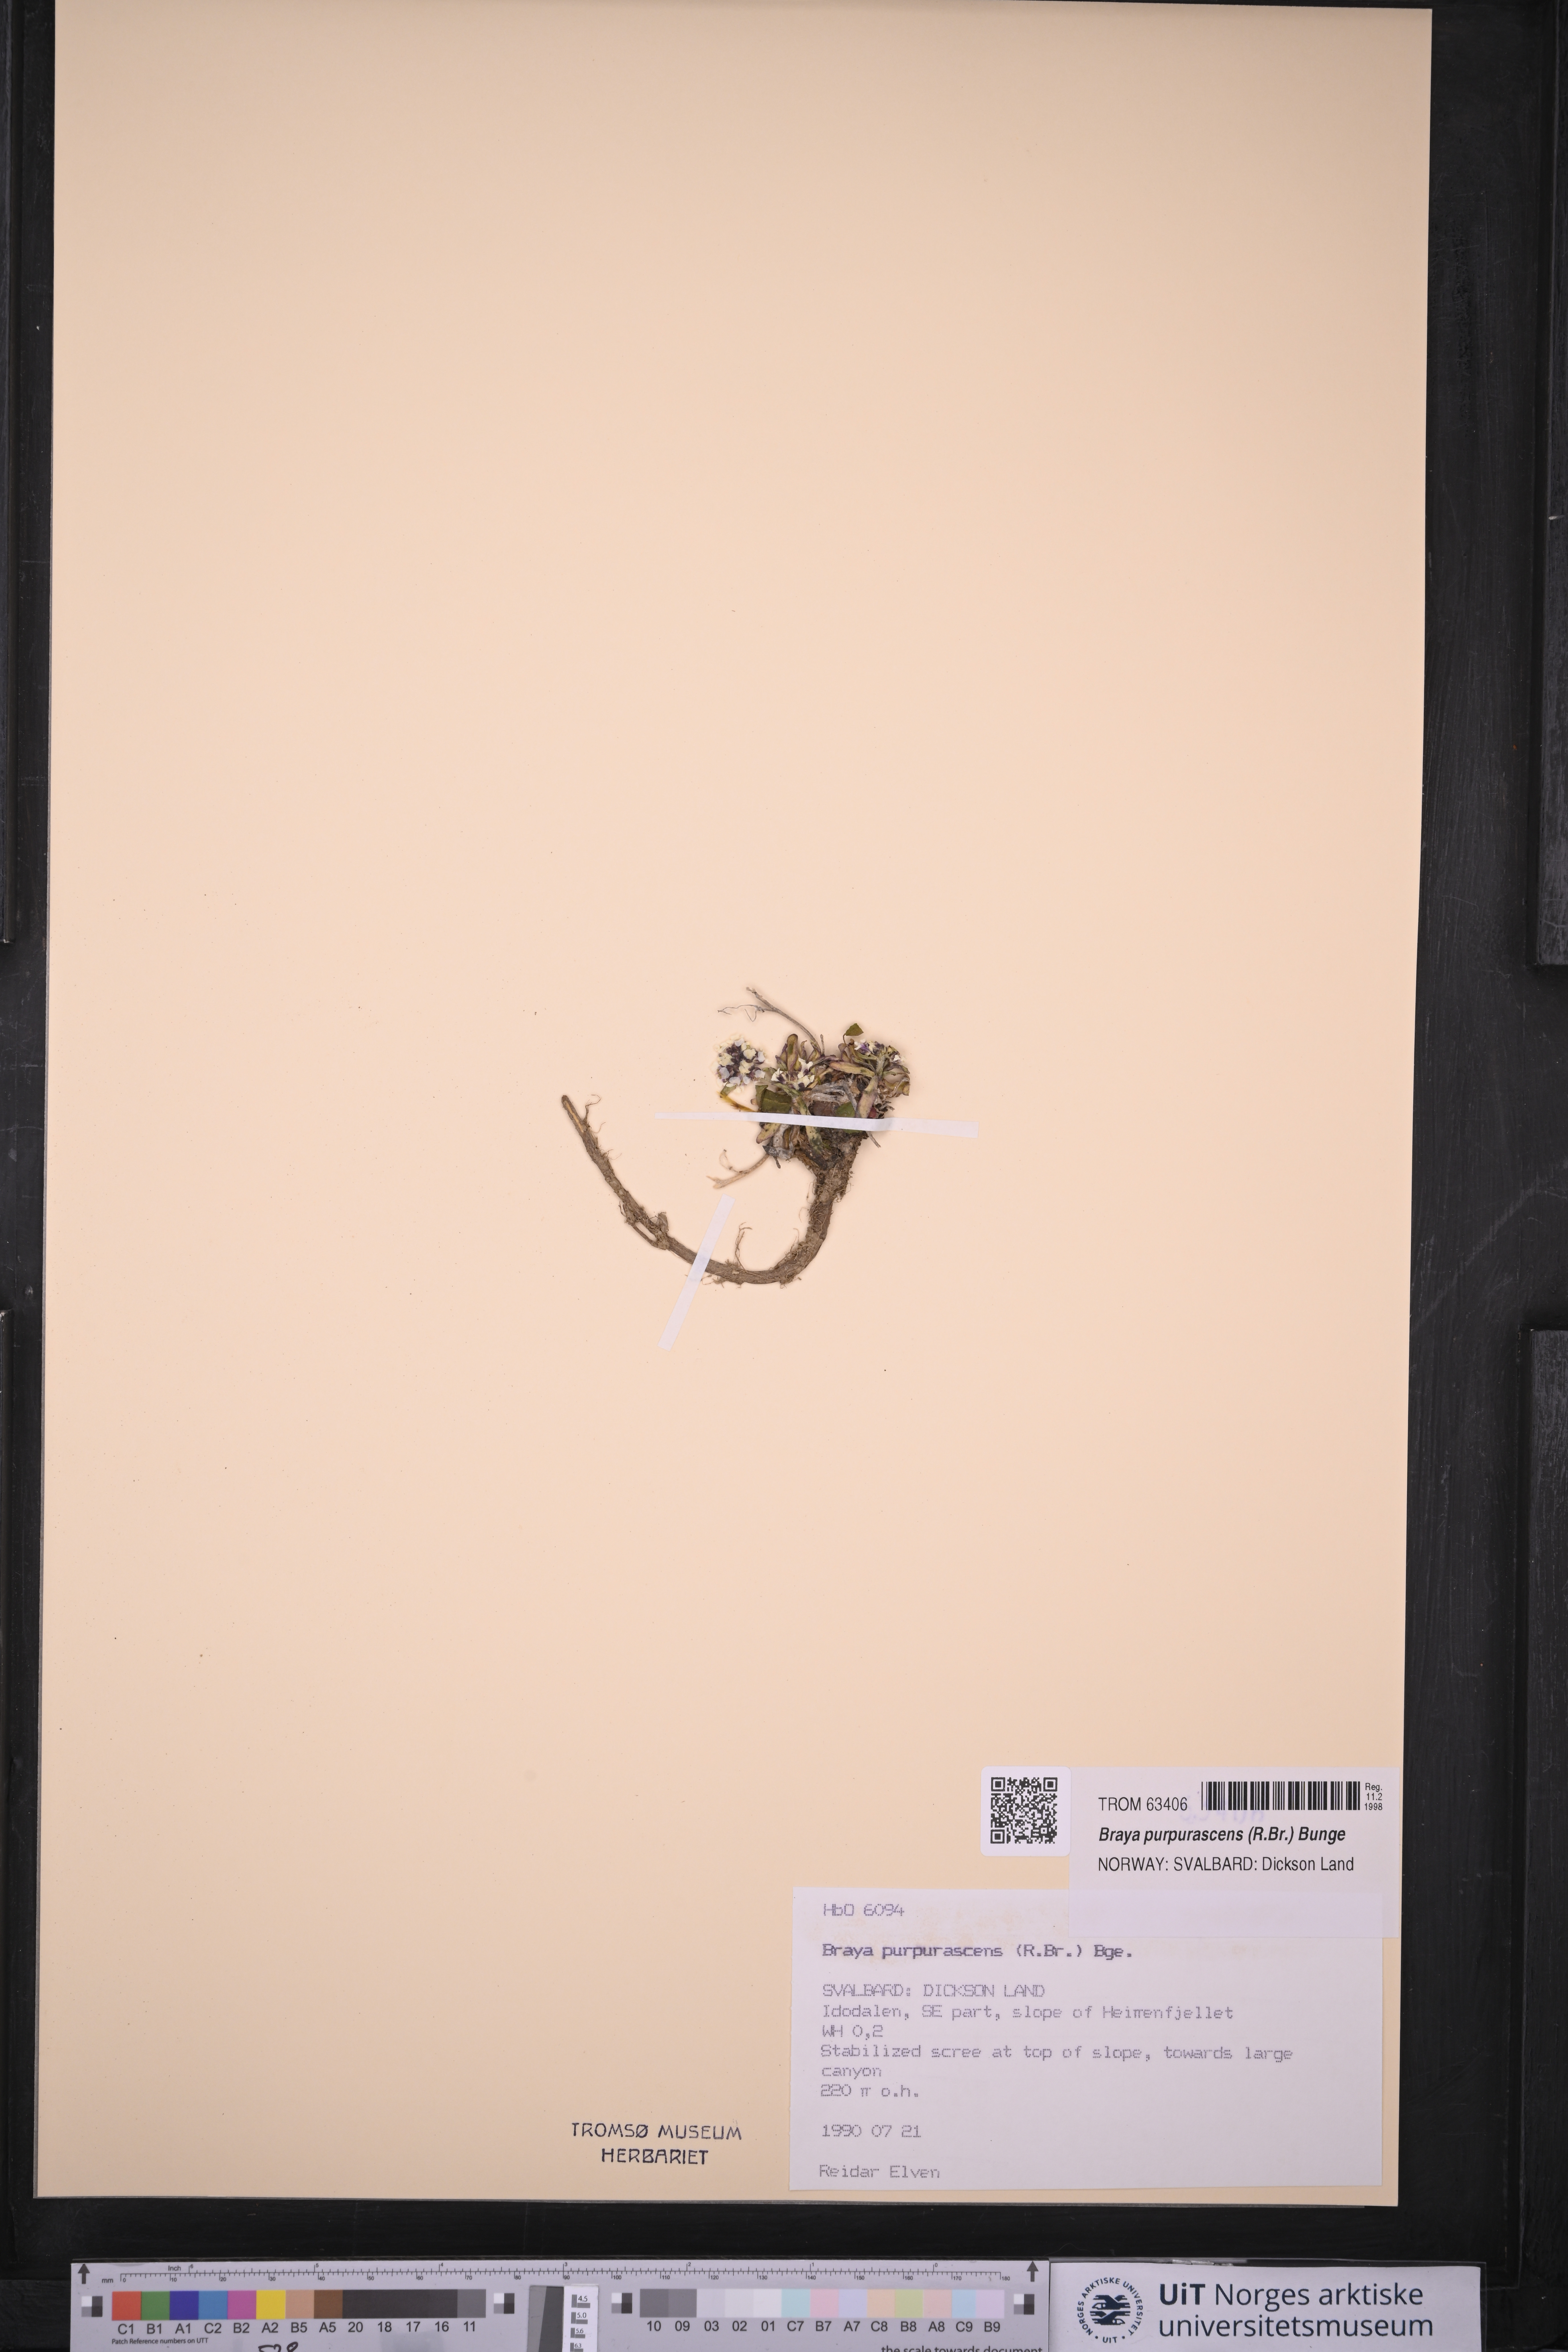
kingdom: Plantae
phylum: Tracheophyta
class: Magnoliopsida
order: Brassicales
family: Brassicaceae
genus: Braya
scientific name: Braya purpurascens
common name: Alpine braya
